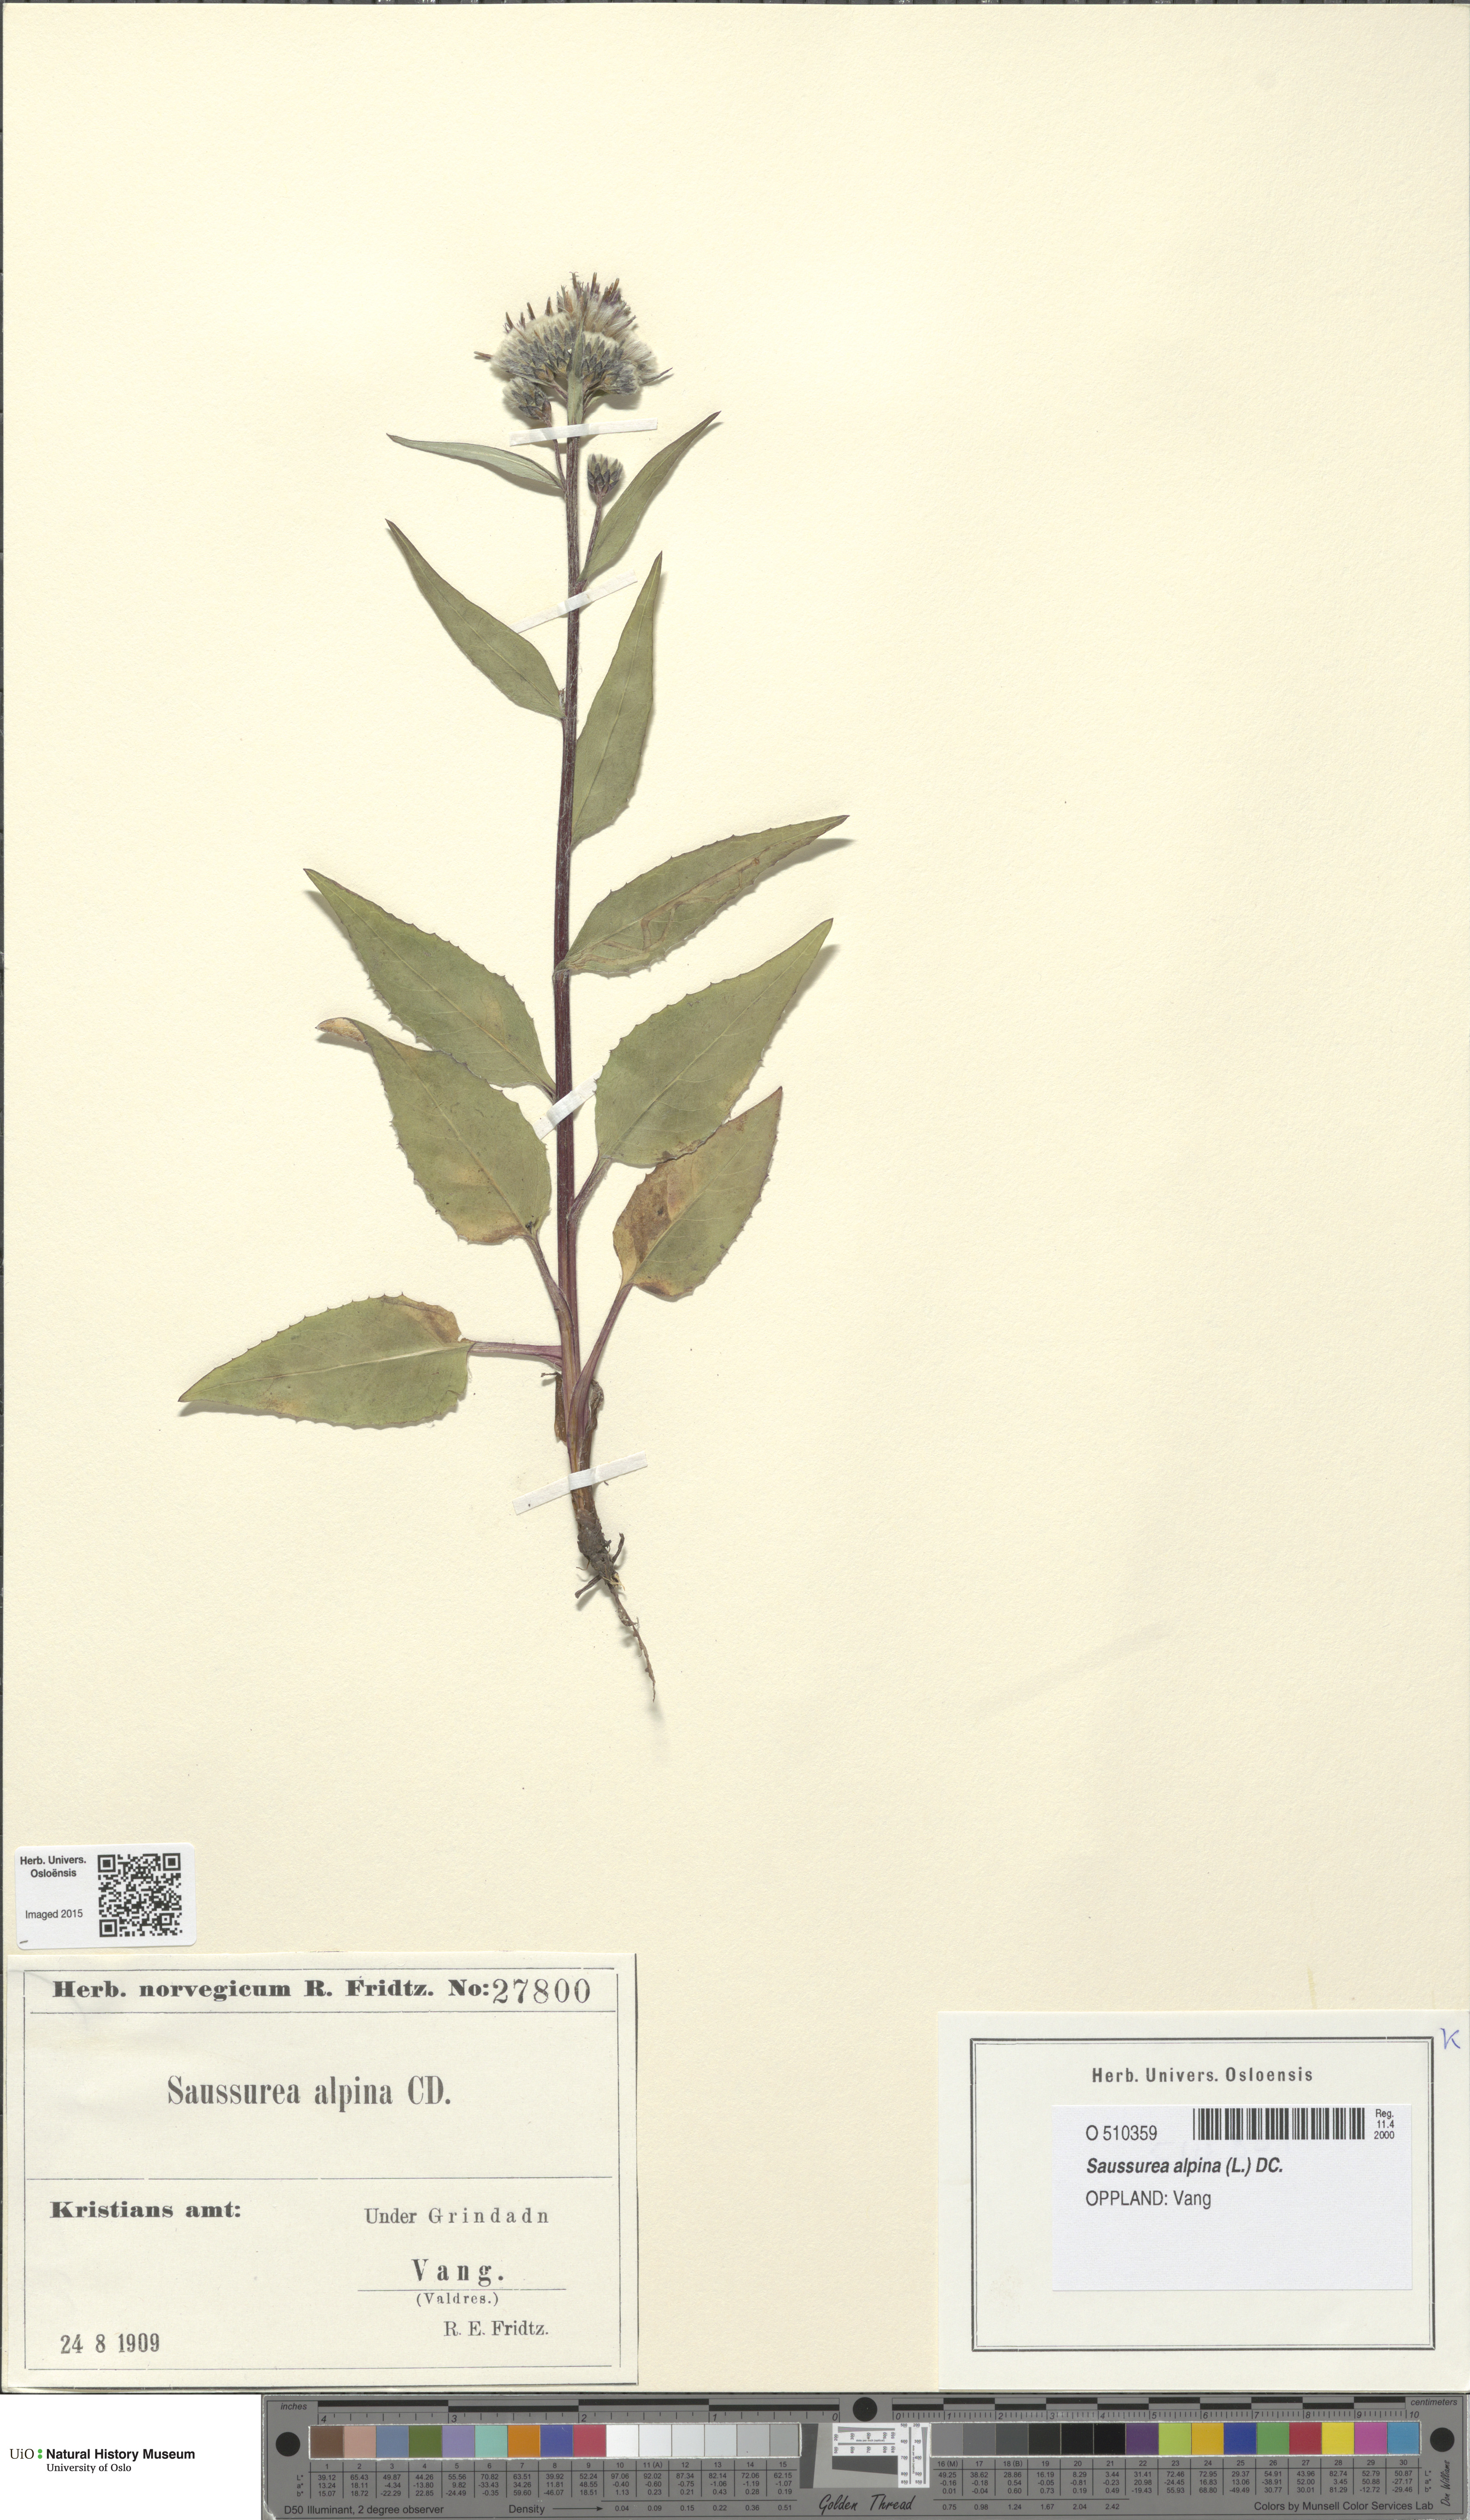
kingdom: Plantae
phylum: Tracheophyta
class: Magnoliopsida
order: Asterales
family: Asteraceae
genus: Saussurea
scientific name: Saussurea alpina
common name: Alpine saw-wort
